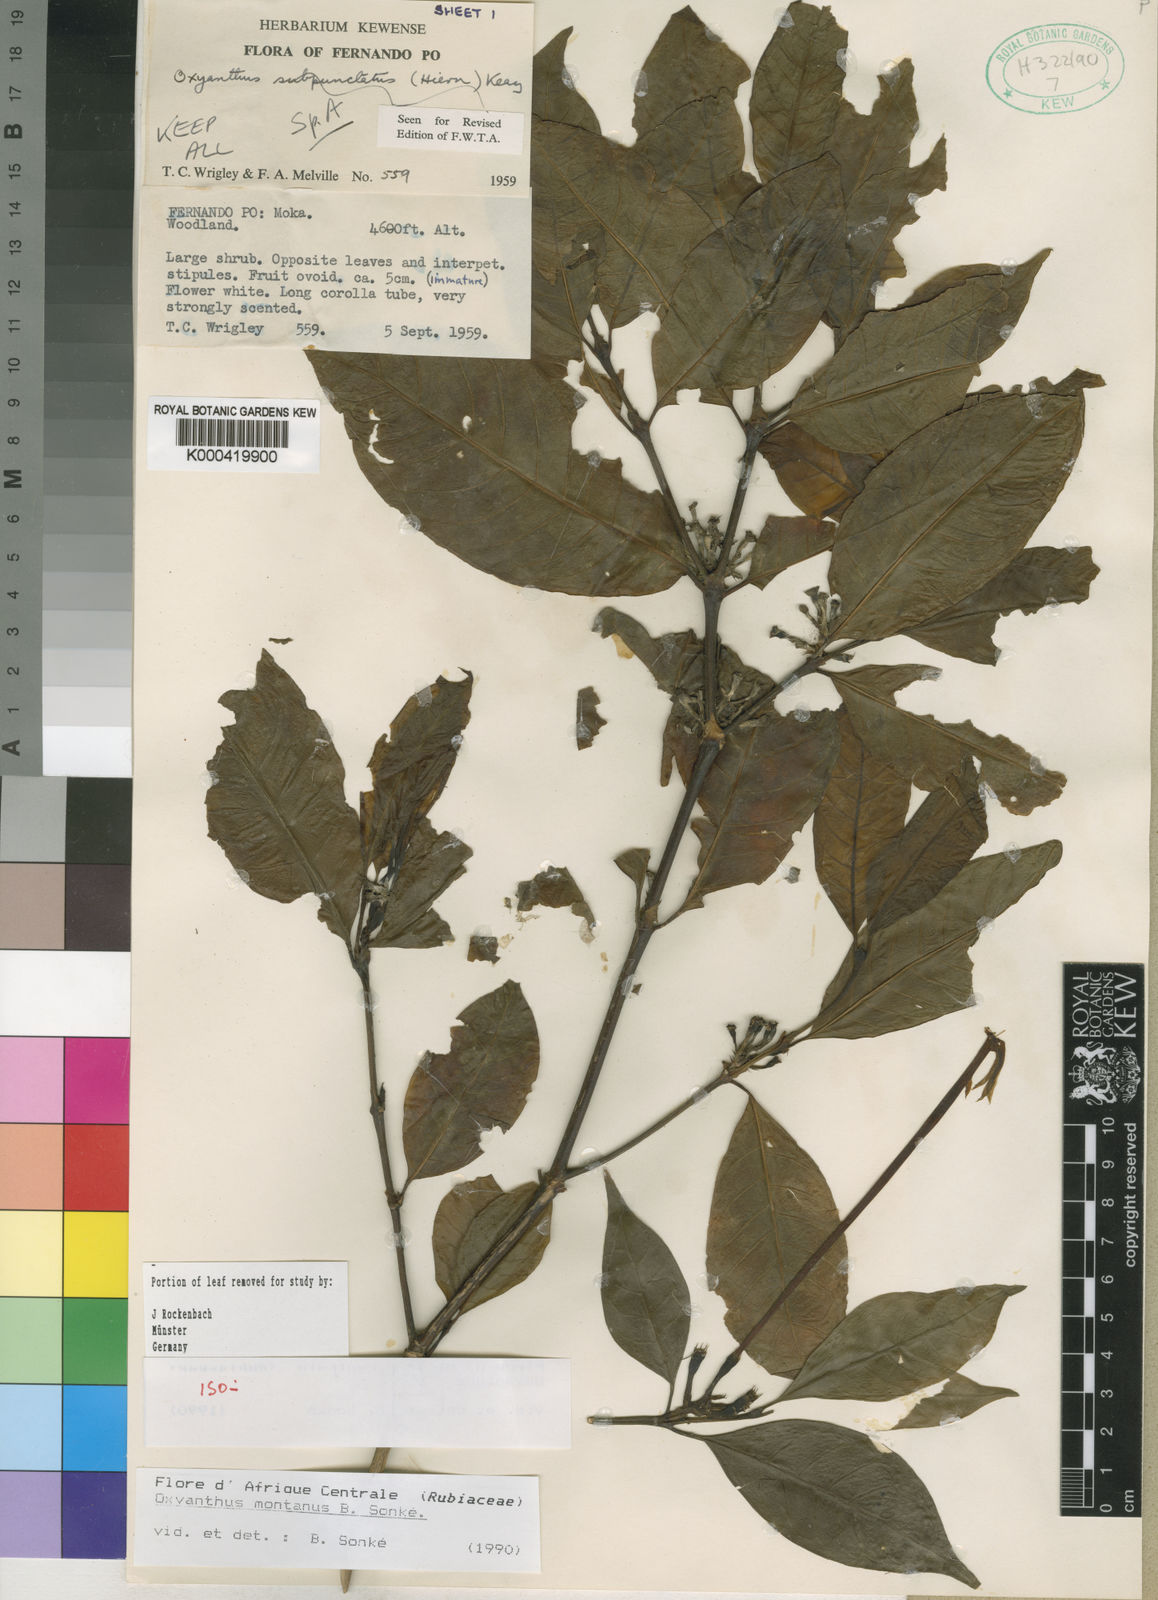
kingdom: Plantae
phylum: Tracheophyta
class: Magnoliopsida
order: Gentianales
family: Rubiaceae
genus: Oxyanthus
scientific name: Oxyanthus
